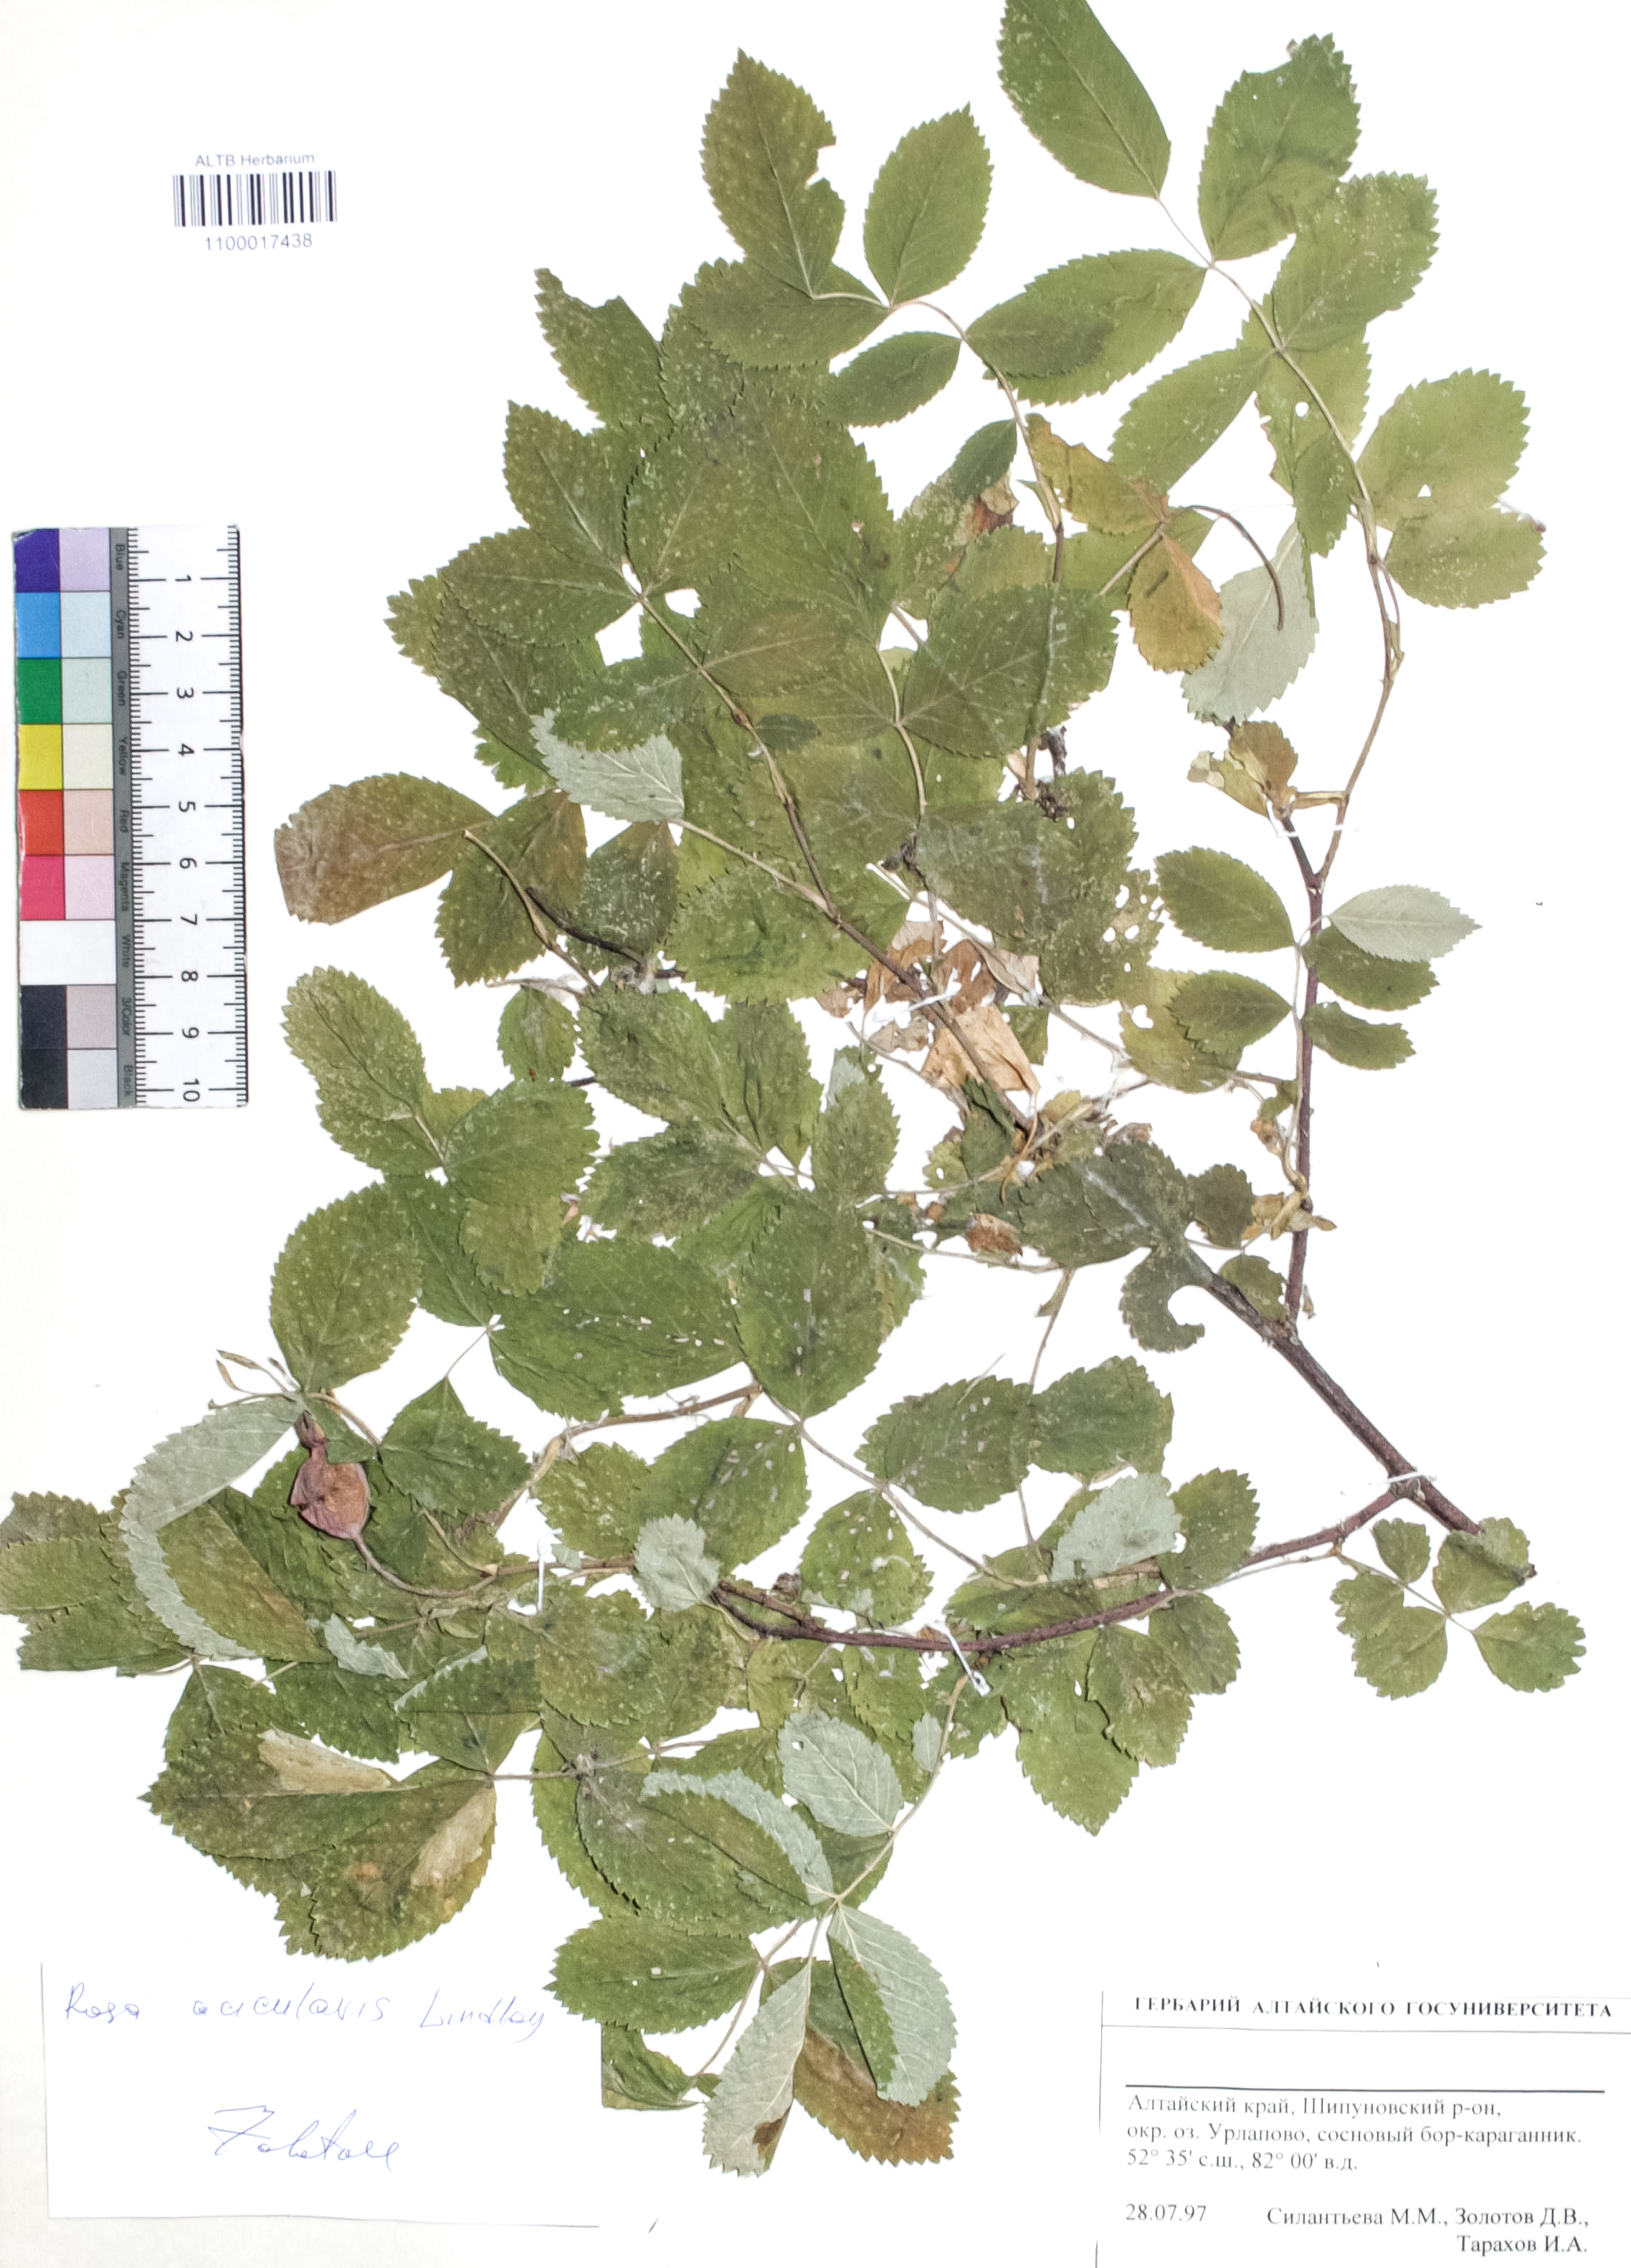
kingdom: Plantae
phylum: Tracheophyta
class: Magnoliopsida
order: Rosales
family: Rosaceae
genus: Rosa
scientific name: Rosa acicularis
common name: Prickly rose
